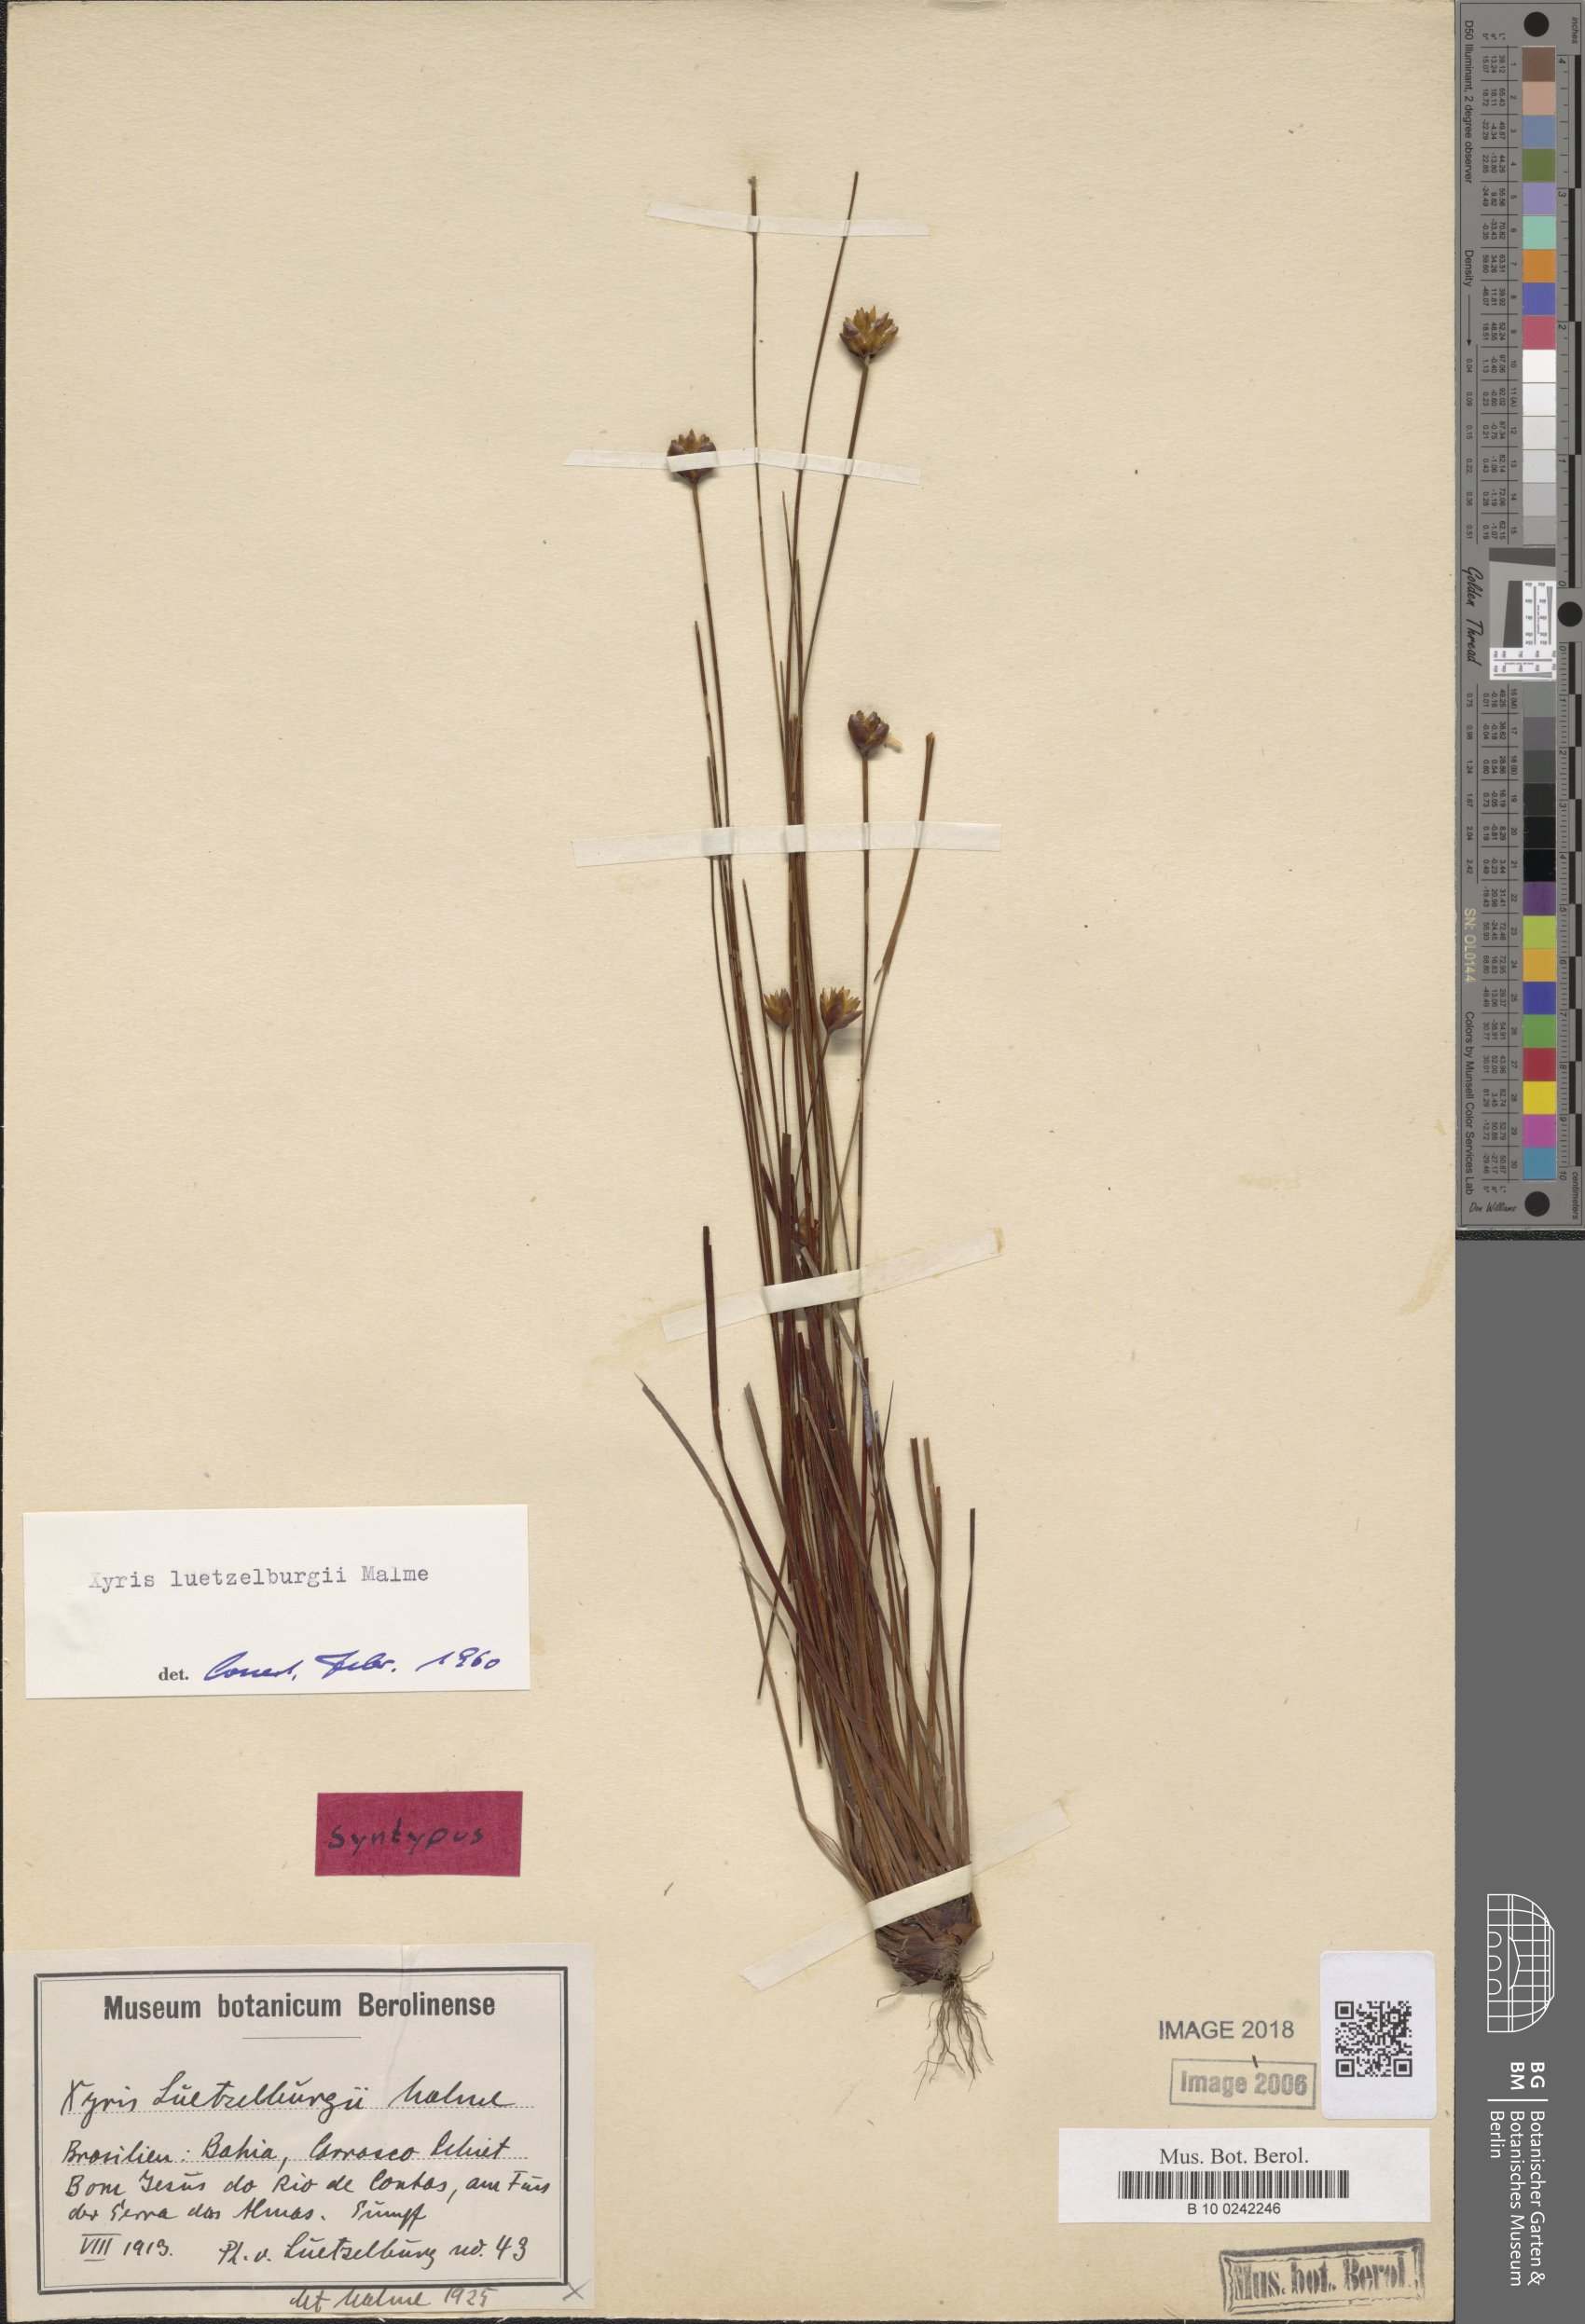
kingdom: Plantae
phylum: Tracheophyta
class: Liliopsida
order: Poales
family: Xyridaceae
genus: Xyris
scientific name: Xyris luetzelburgii
